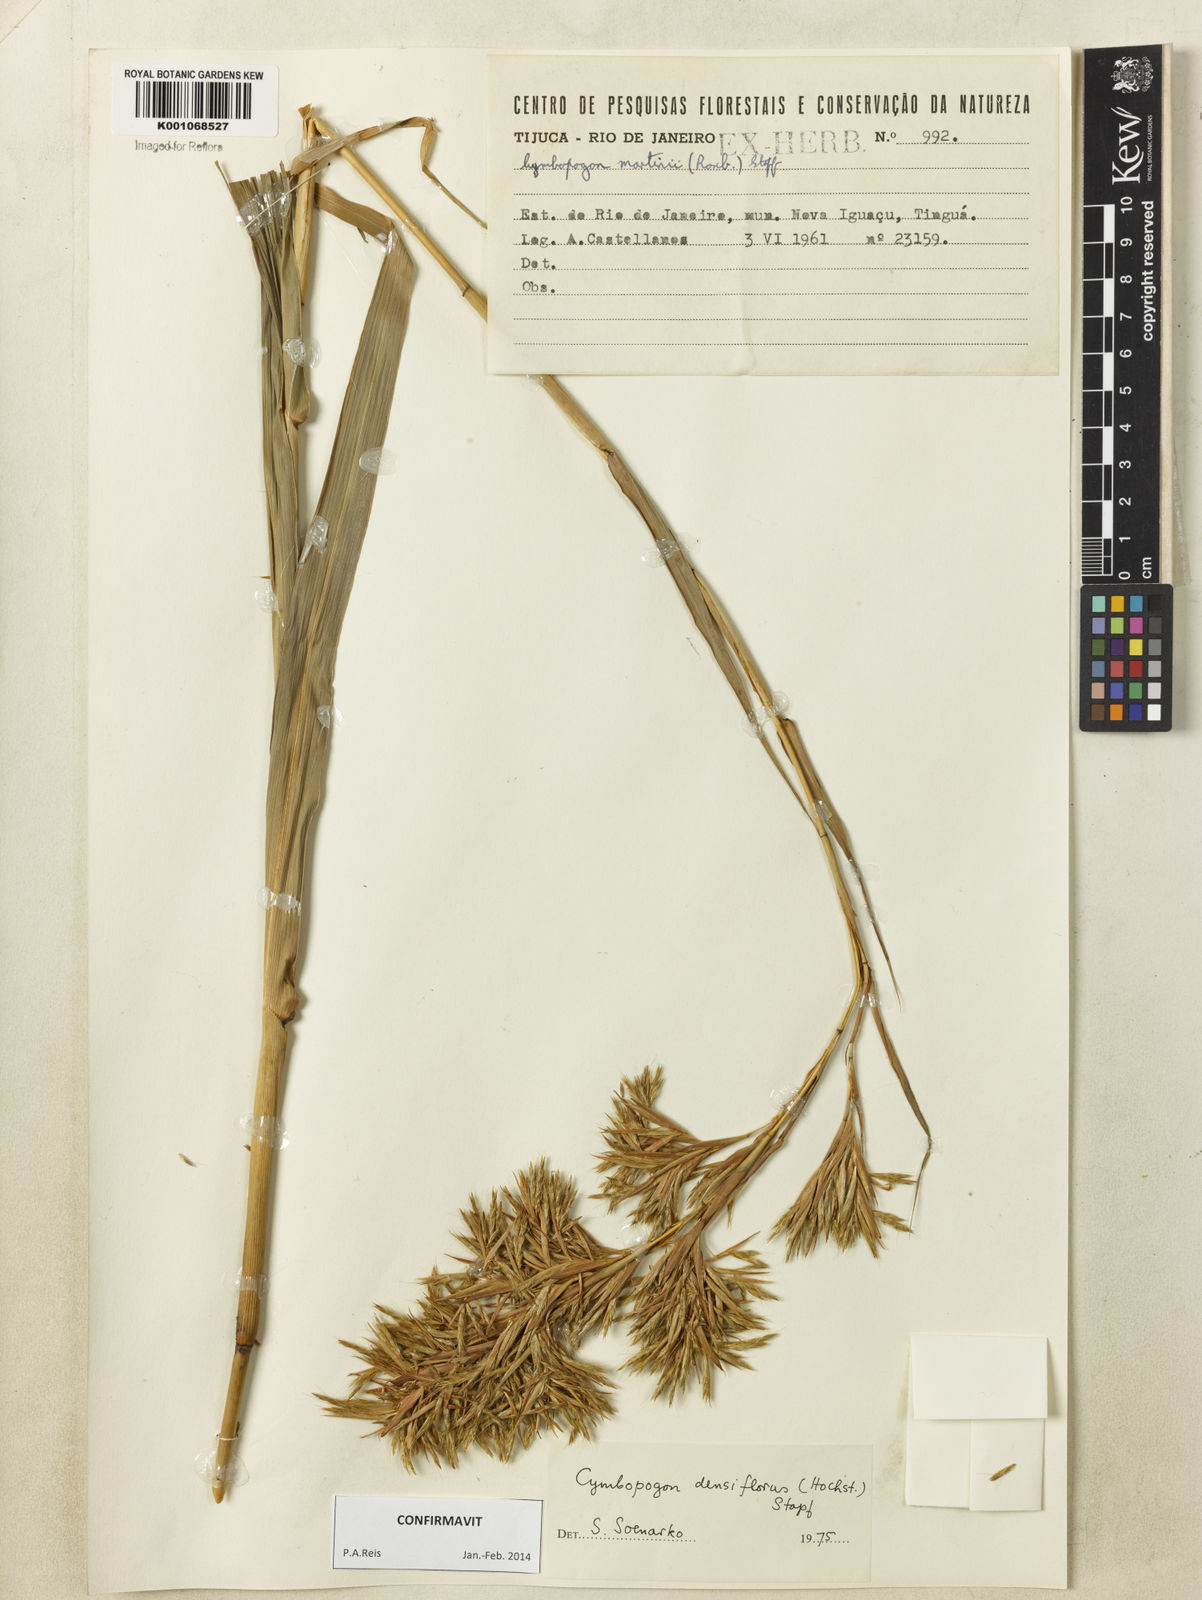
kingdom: Plantae
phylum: Tracheophyta
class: Liliopsida
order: Poales
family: Poaceae
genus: Cymbopogon
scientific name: Cymbopogon densiflorus
